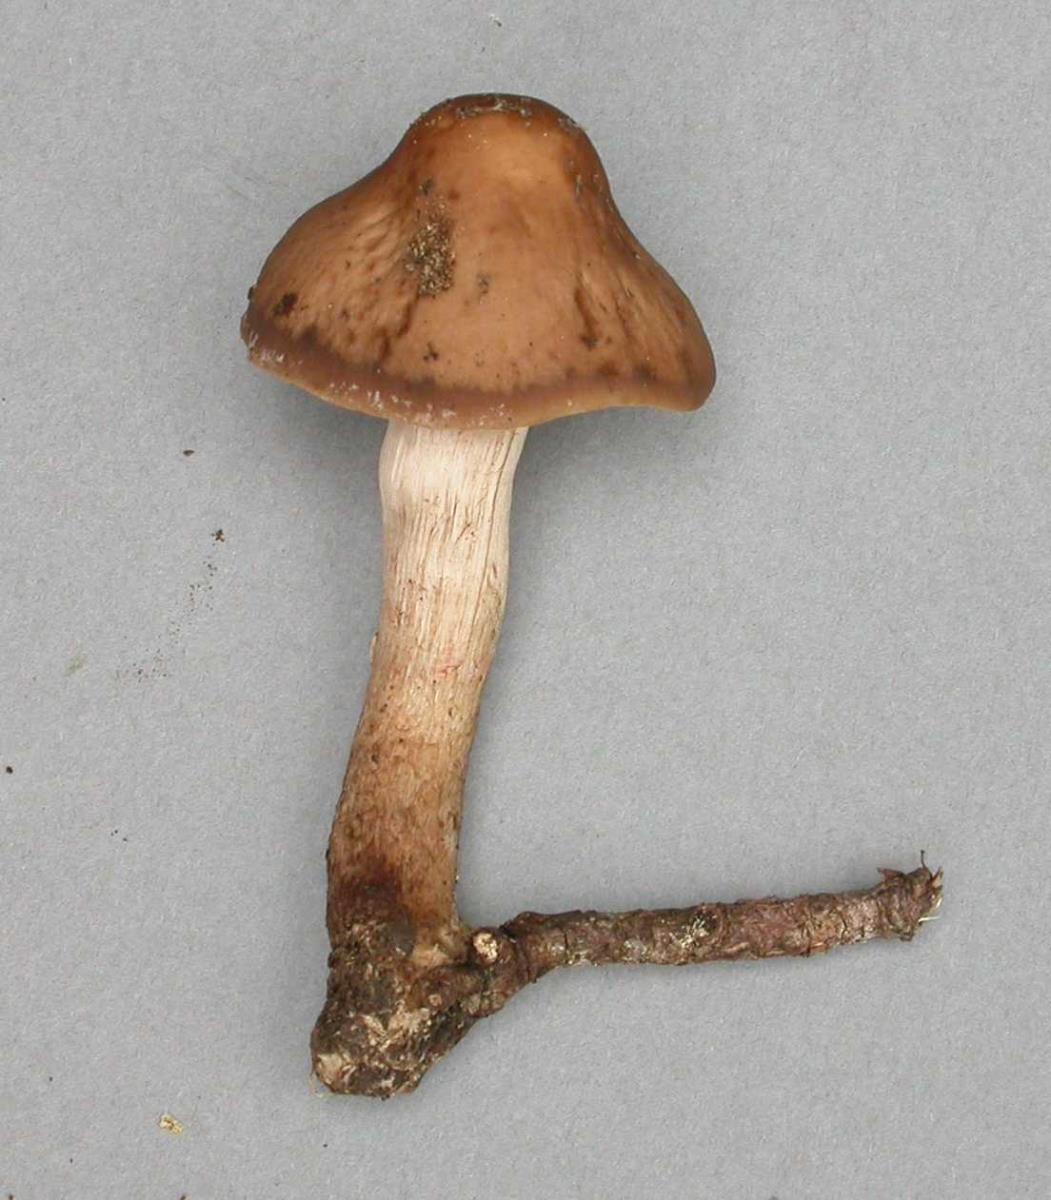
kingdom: Fungi
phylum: Basidiomycota
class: Agaricomycetes
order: Agaricales
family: Hymenogastraceae
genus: Psilocybe
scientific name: Psilocybe subaeruginosa
